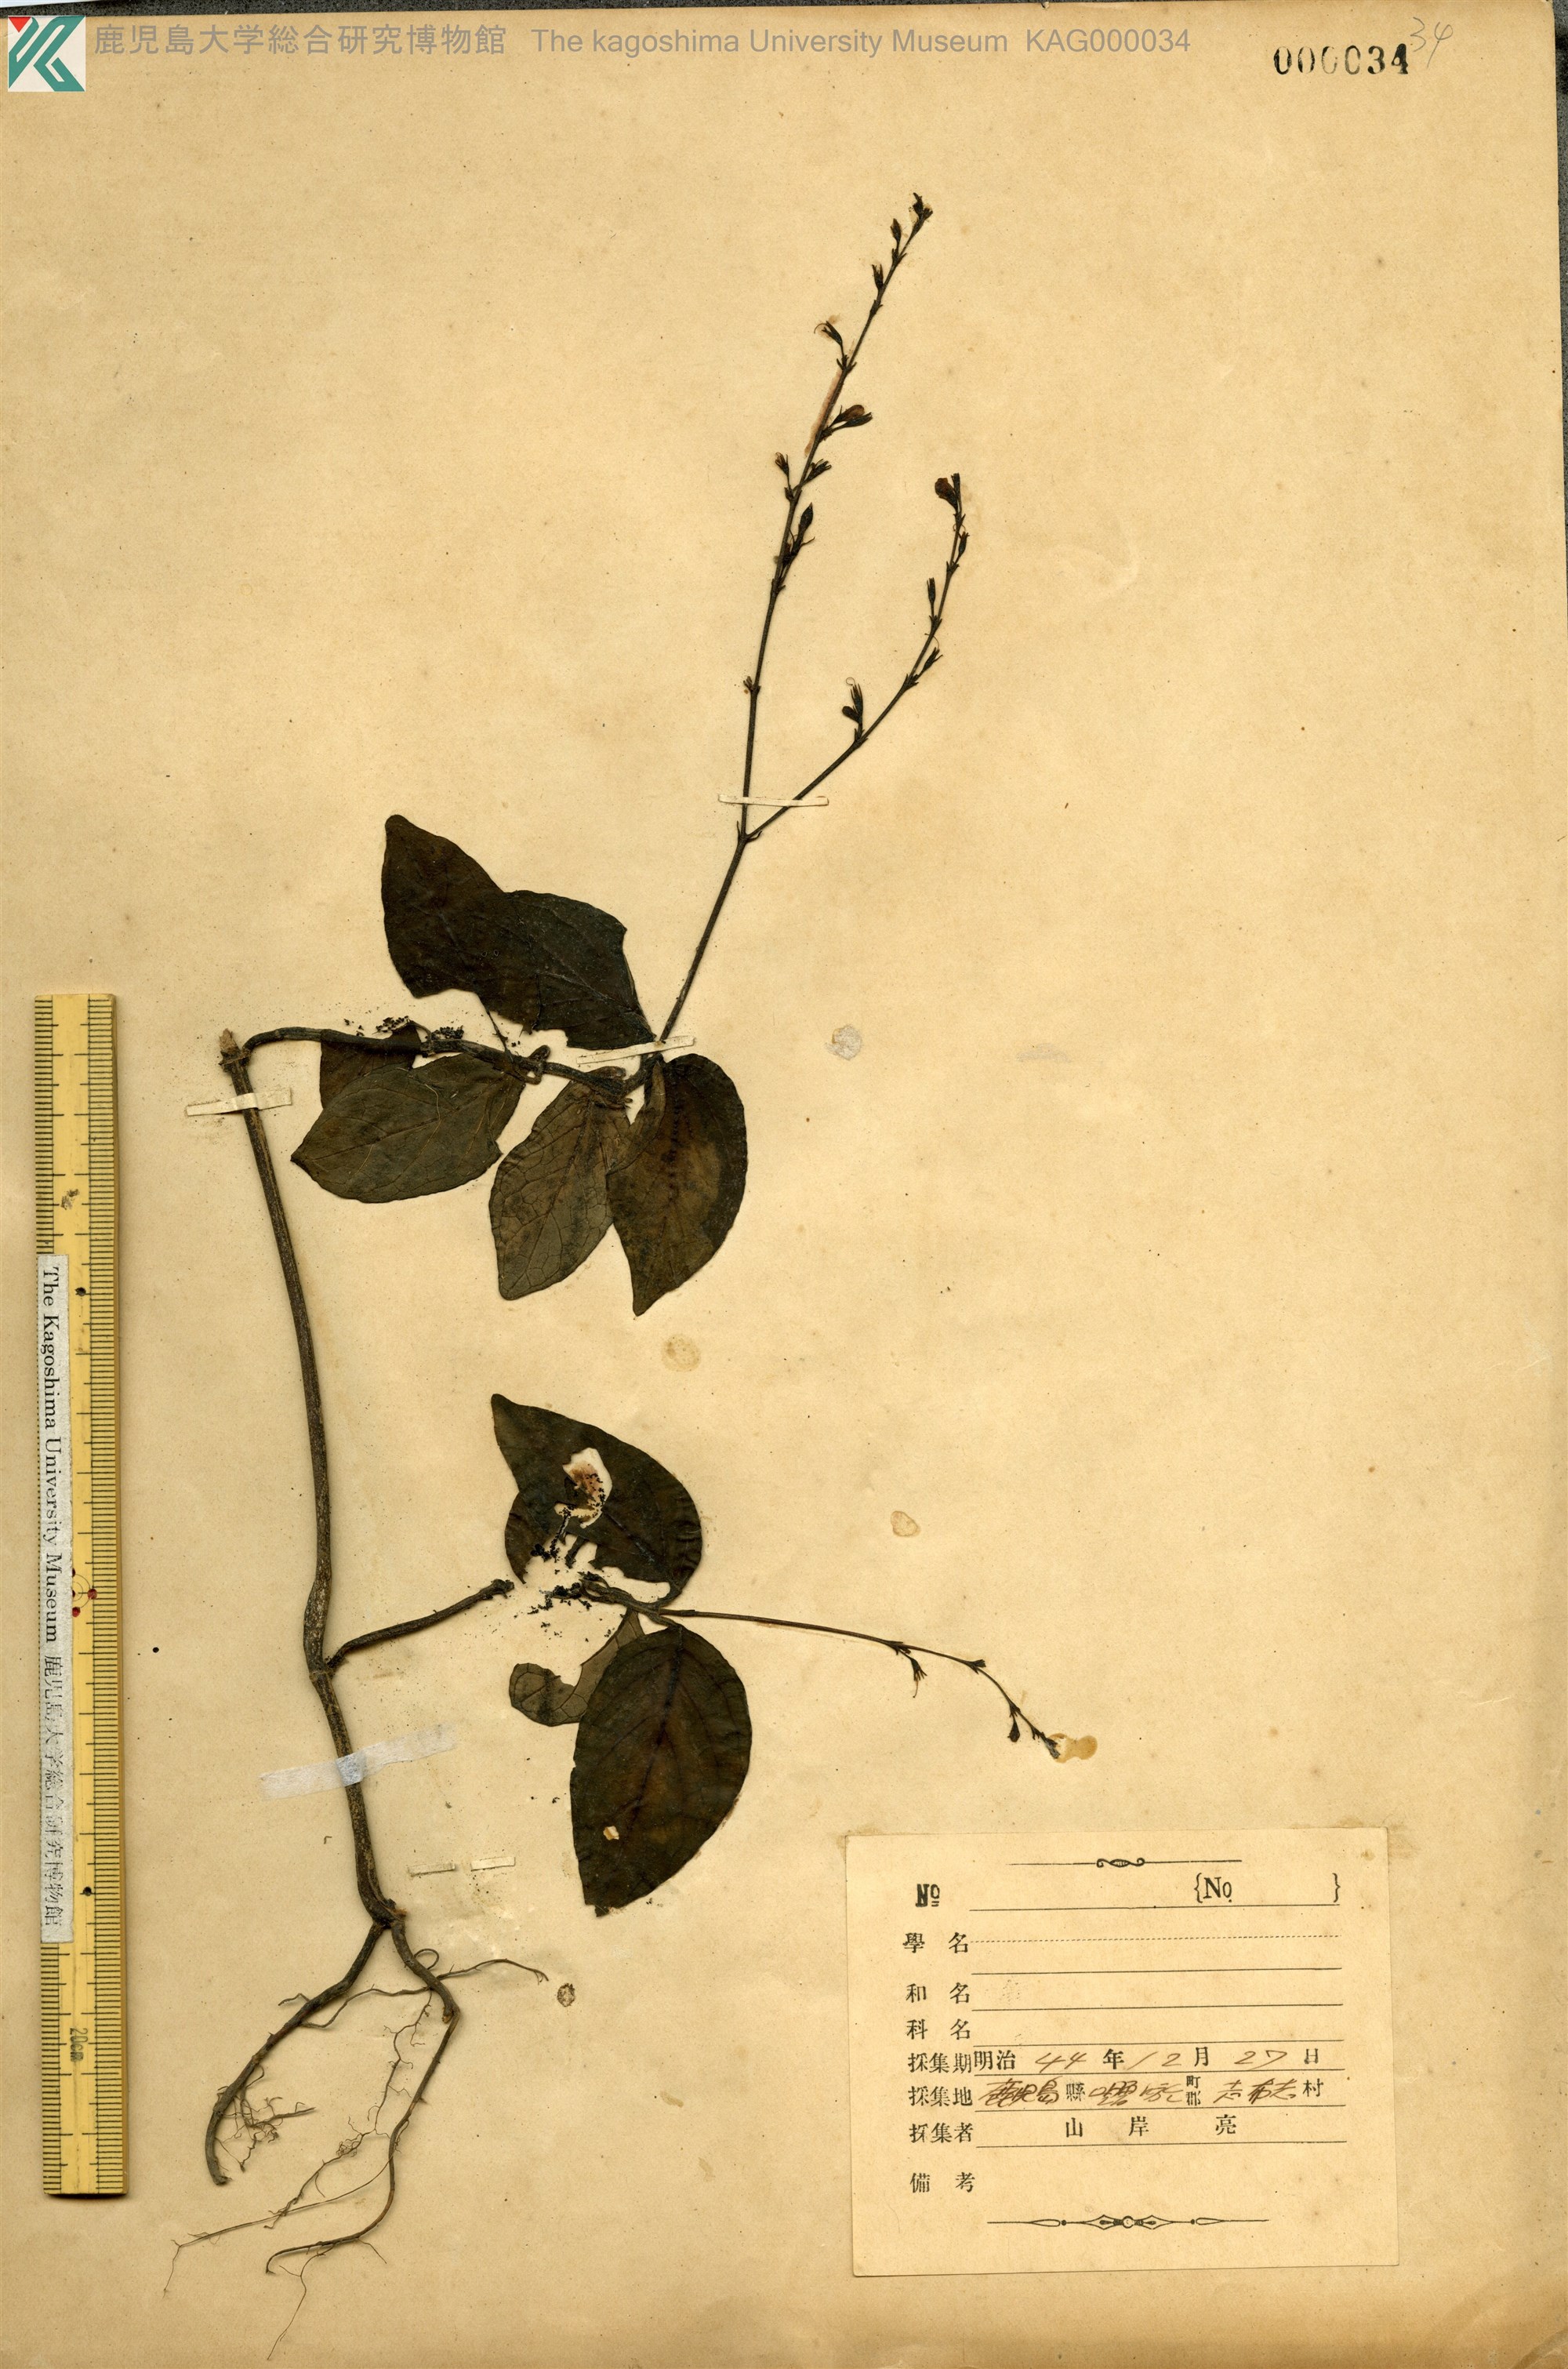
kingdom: Plantae
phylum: Tracheophyta
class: Magnoliopsida
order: Lamiales
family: Acanthaceae
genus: Codonacanthus
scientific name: Codonacanthus pauciflorus
